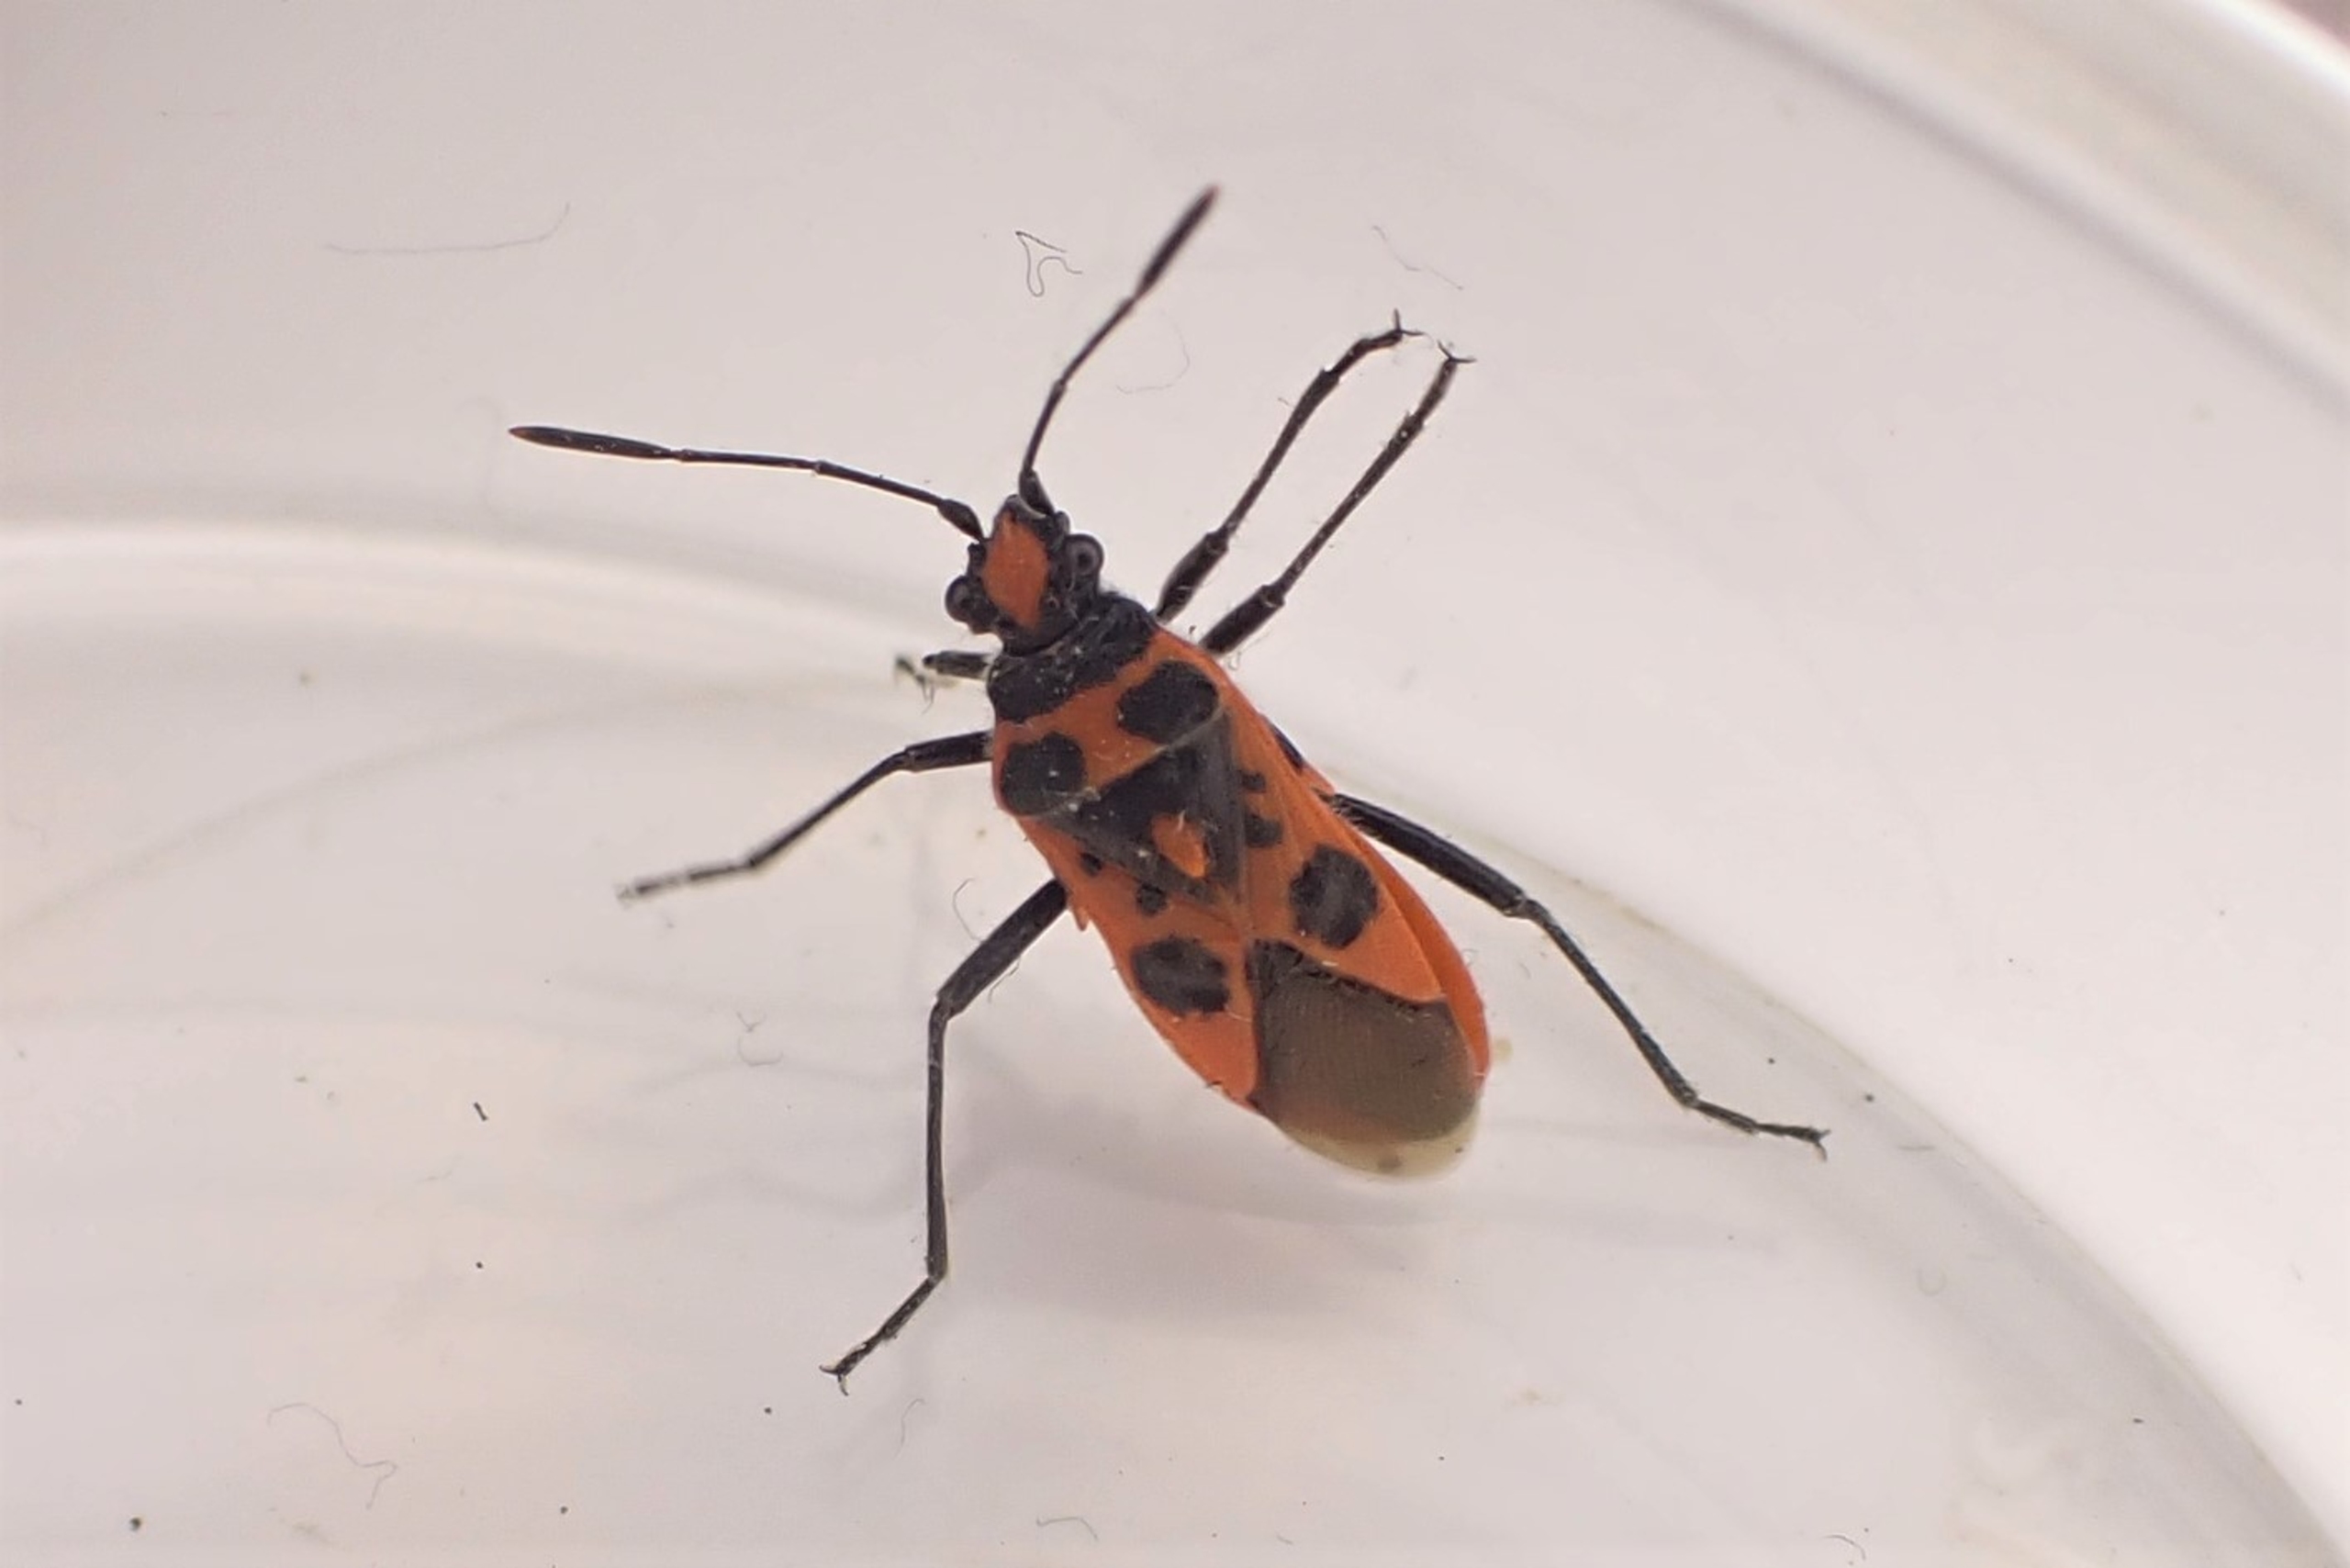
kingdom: Animalia
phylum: Arthropoda
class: Insecta
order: Hemiptera
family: Rhopalidae
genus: Corizus
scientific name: Corizus hyoscyami
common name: Rød kanttæge
